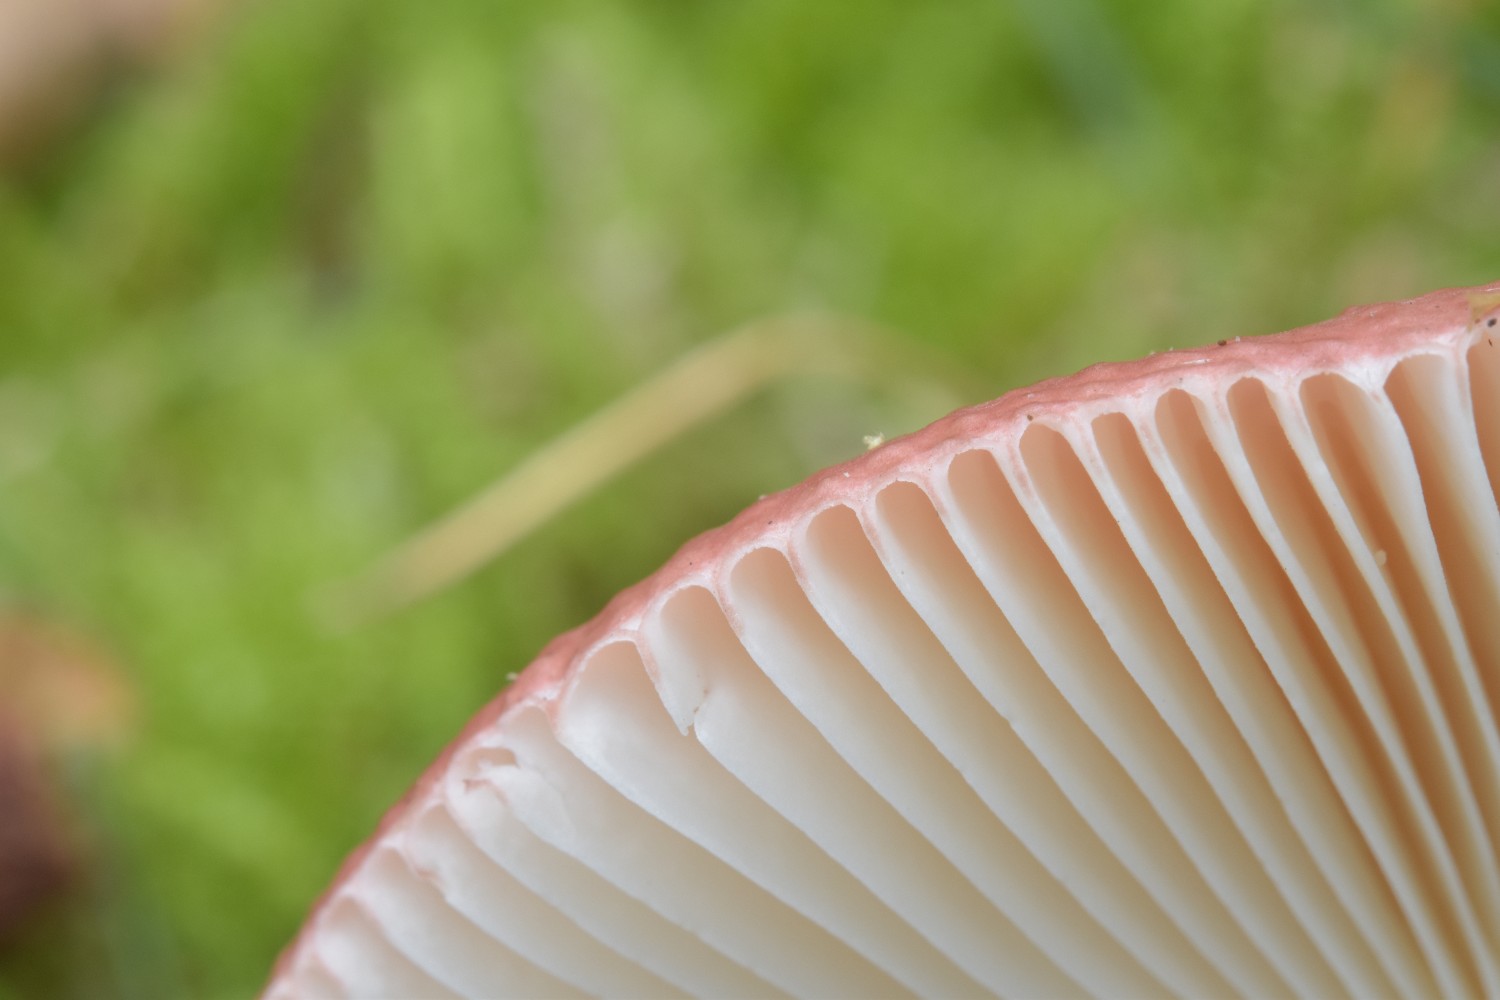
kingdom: Fungi
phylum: Basidiomycota
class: Agaricomycetes
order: Russulales
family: Russulaceae
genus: Russula
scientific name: Russula velenovskyi
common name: orangerød skørhat
